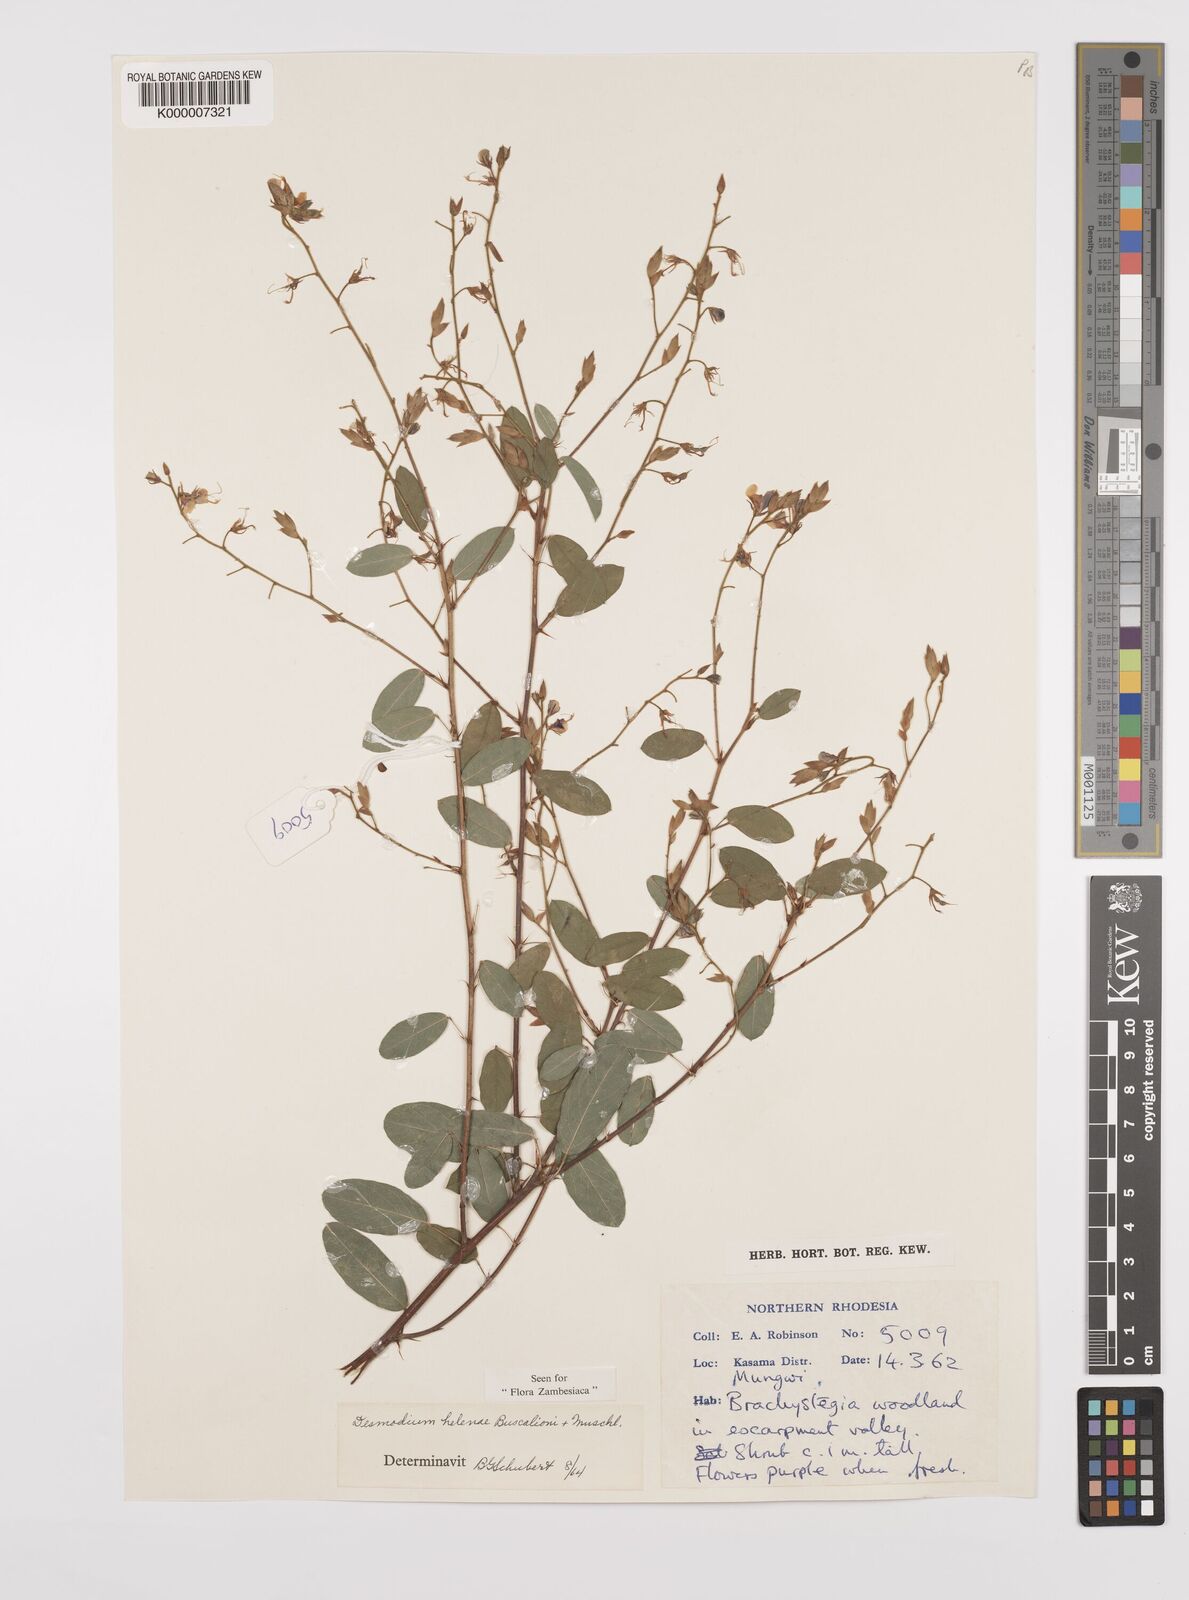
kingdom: Plantae
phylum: Tracheophyta
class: Magnoliopsida
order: Fabales
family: Fabaceae
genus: Grona
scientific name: Grona helenae
